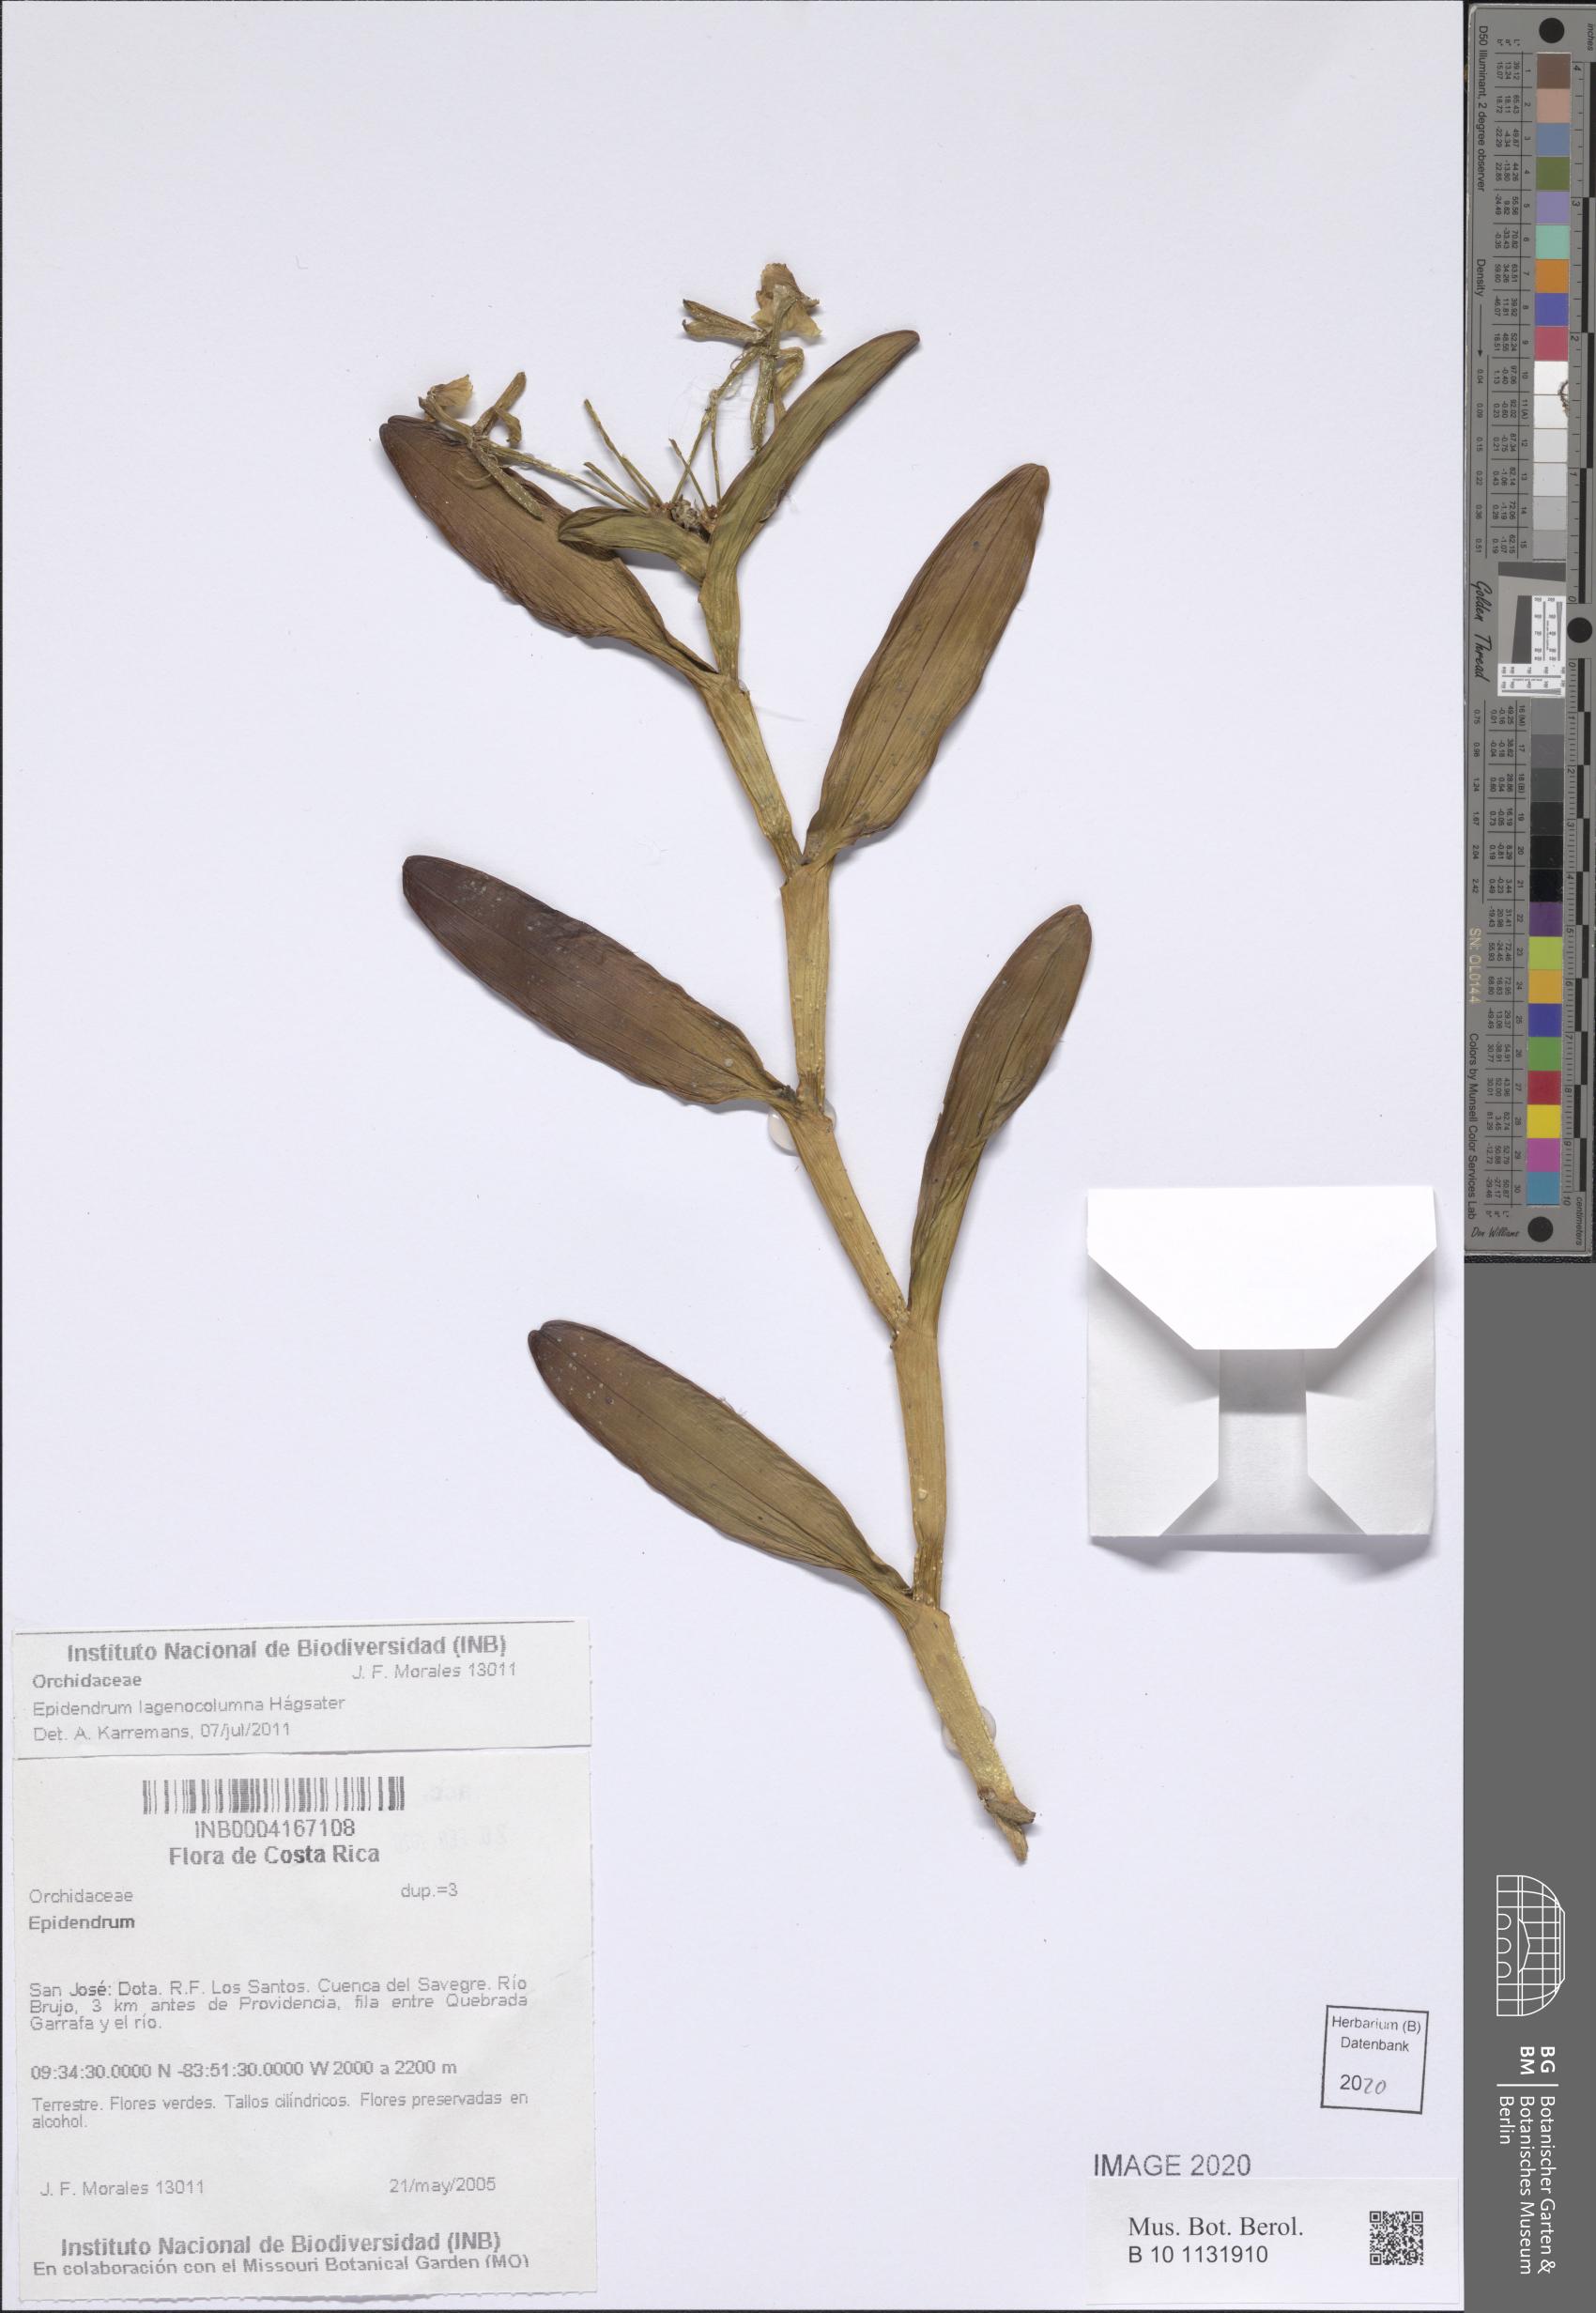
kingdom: Plantae
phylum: Tracheophyta
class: Liliopsida
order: Asparagales
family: Orchidaceae
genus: Epidendrum
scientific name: Epidendrum lagenocolumna
